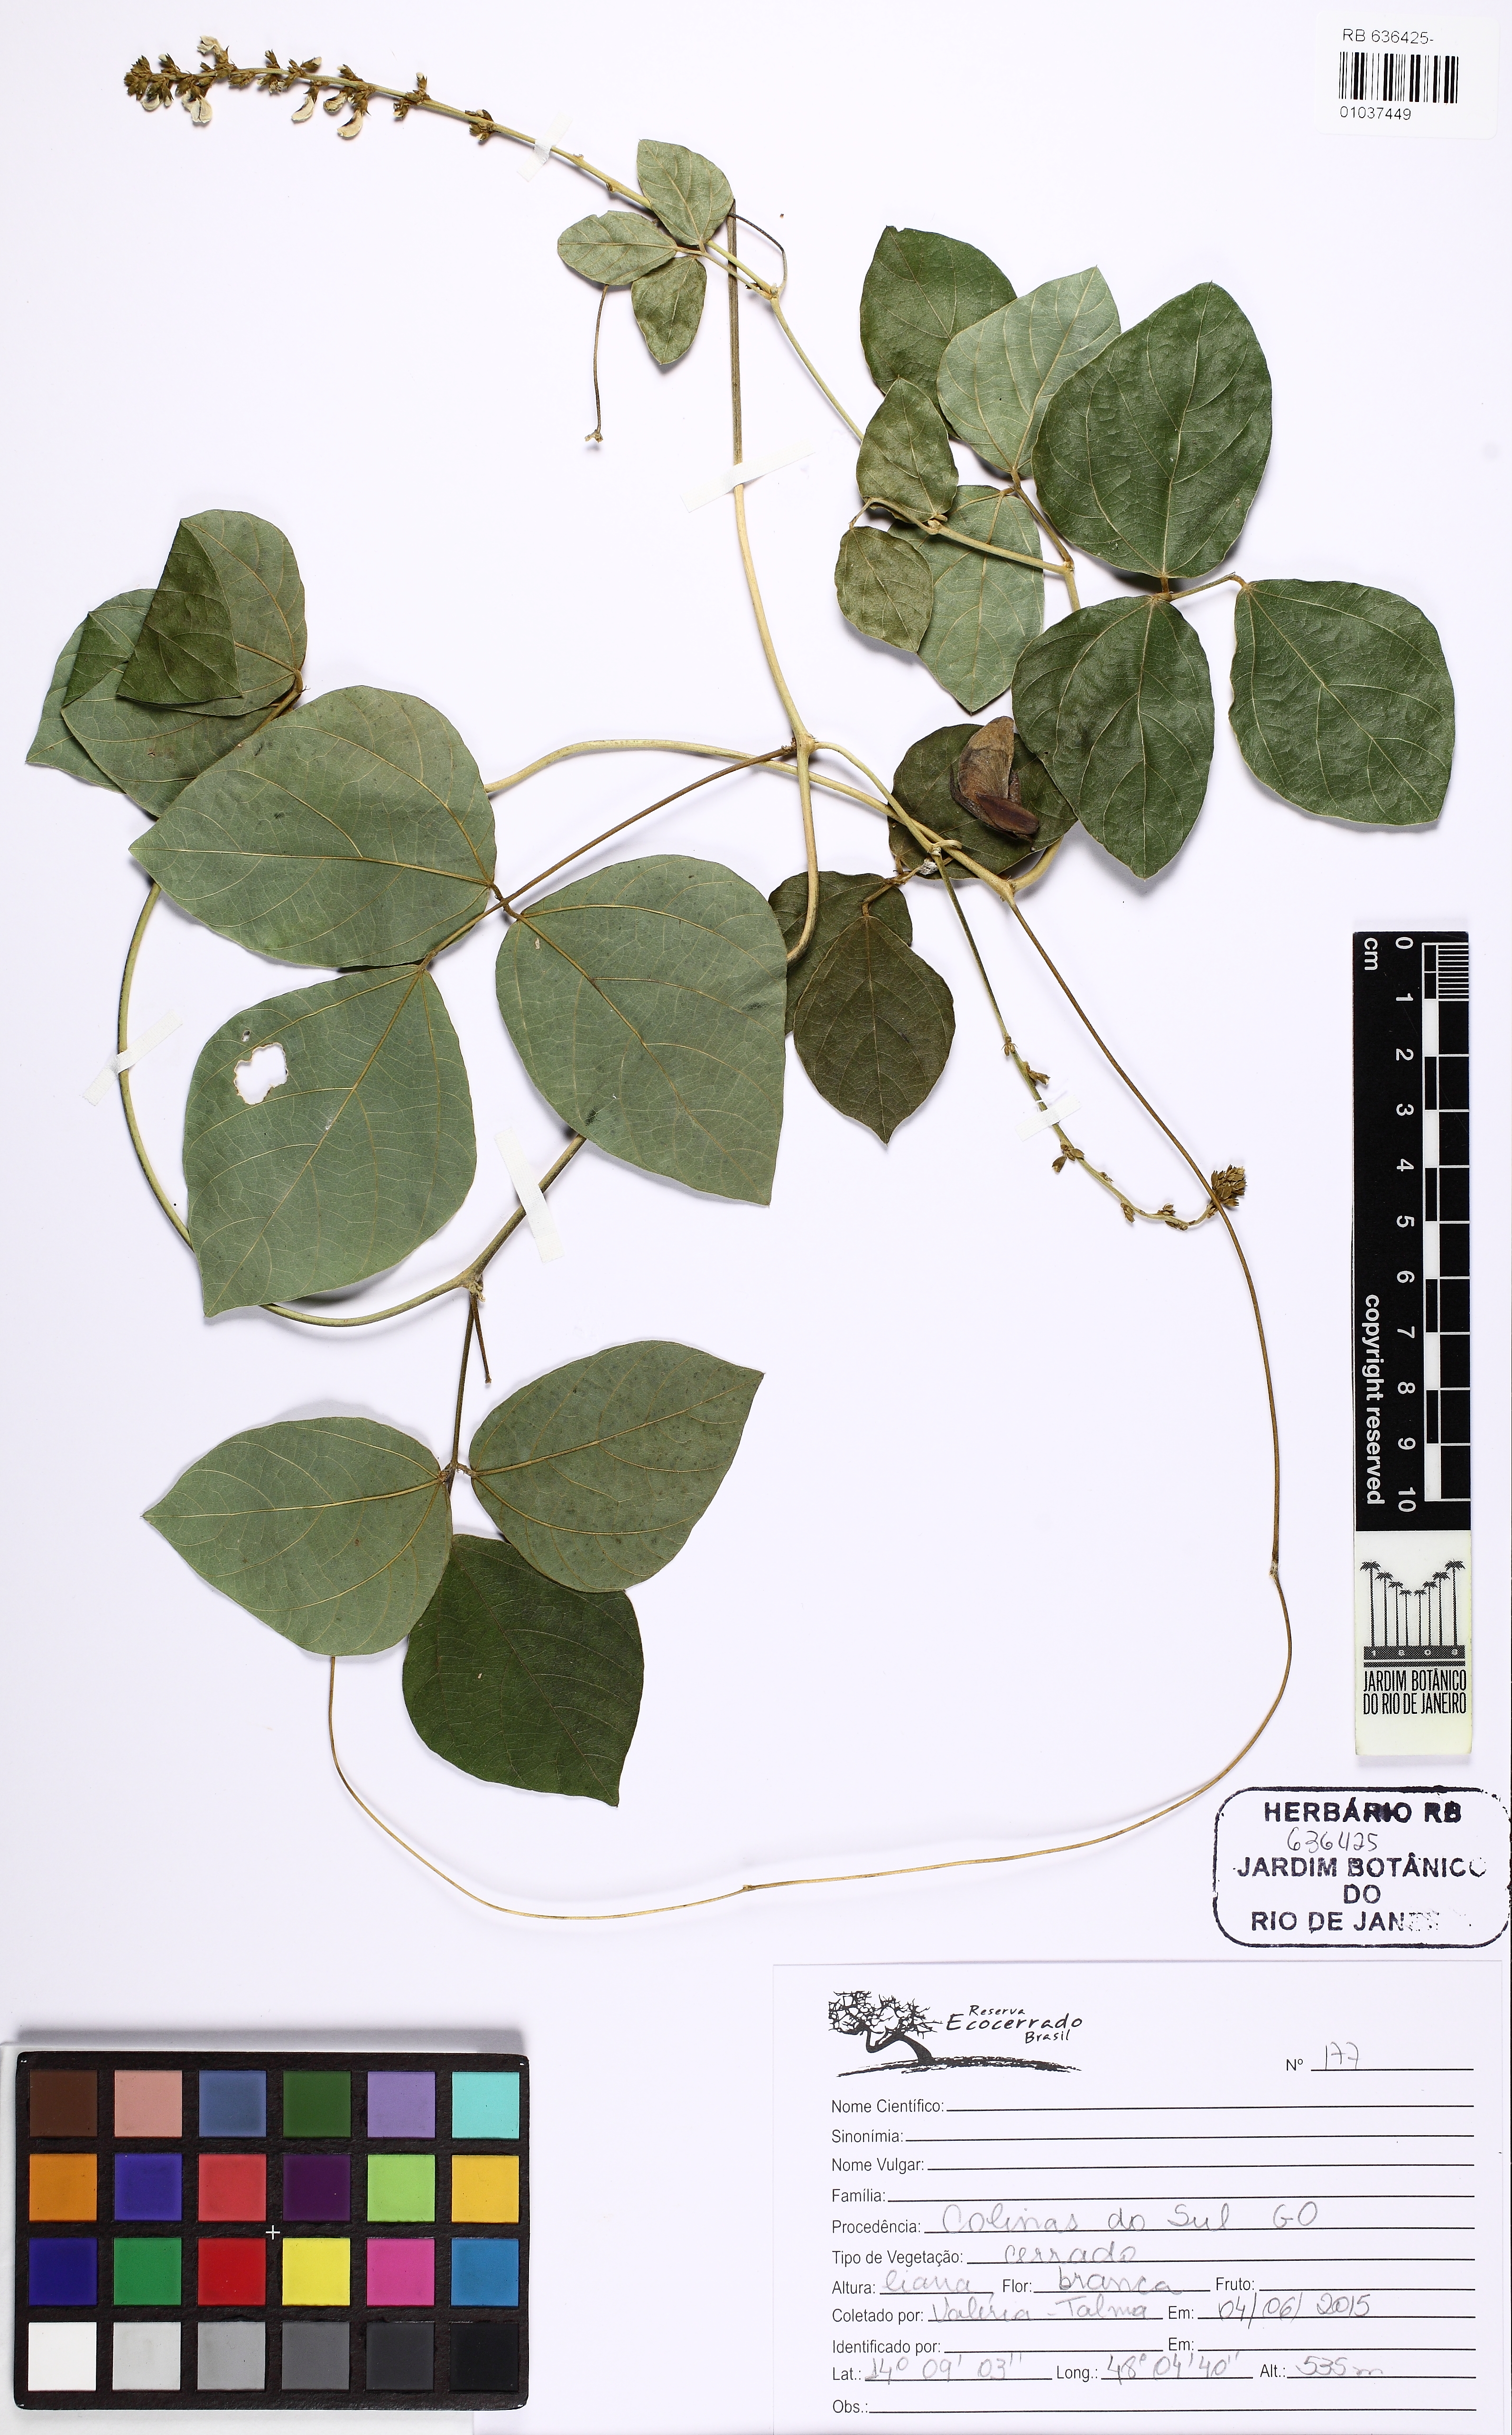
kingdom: Plantae
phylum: Tracheophyta
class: Magnoliopsida
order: Fabales
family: Fabaceae
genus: Calopogonium
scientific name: Calopogonium
